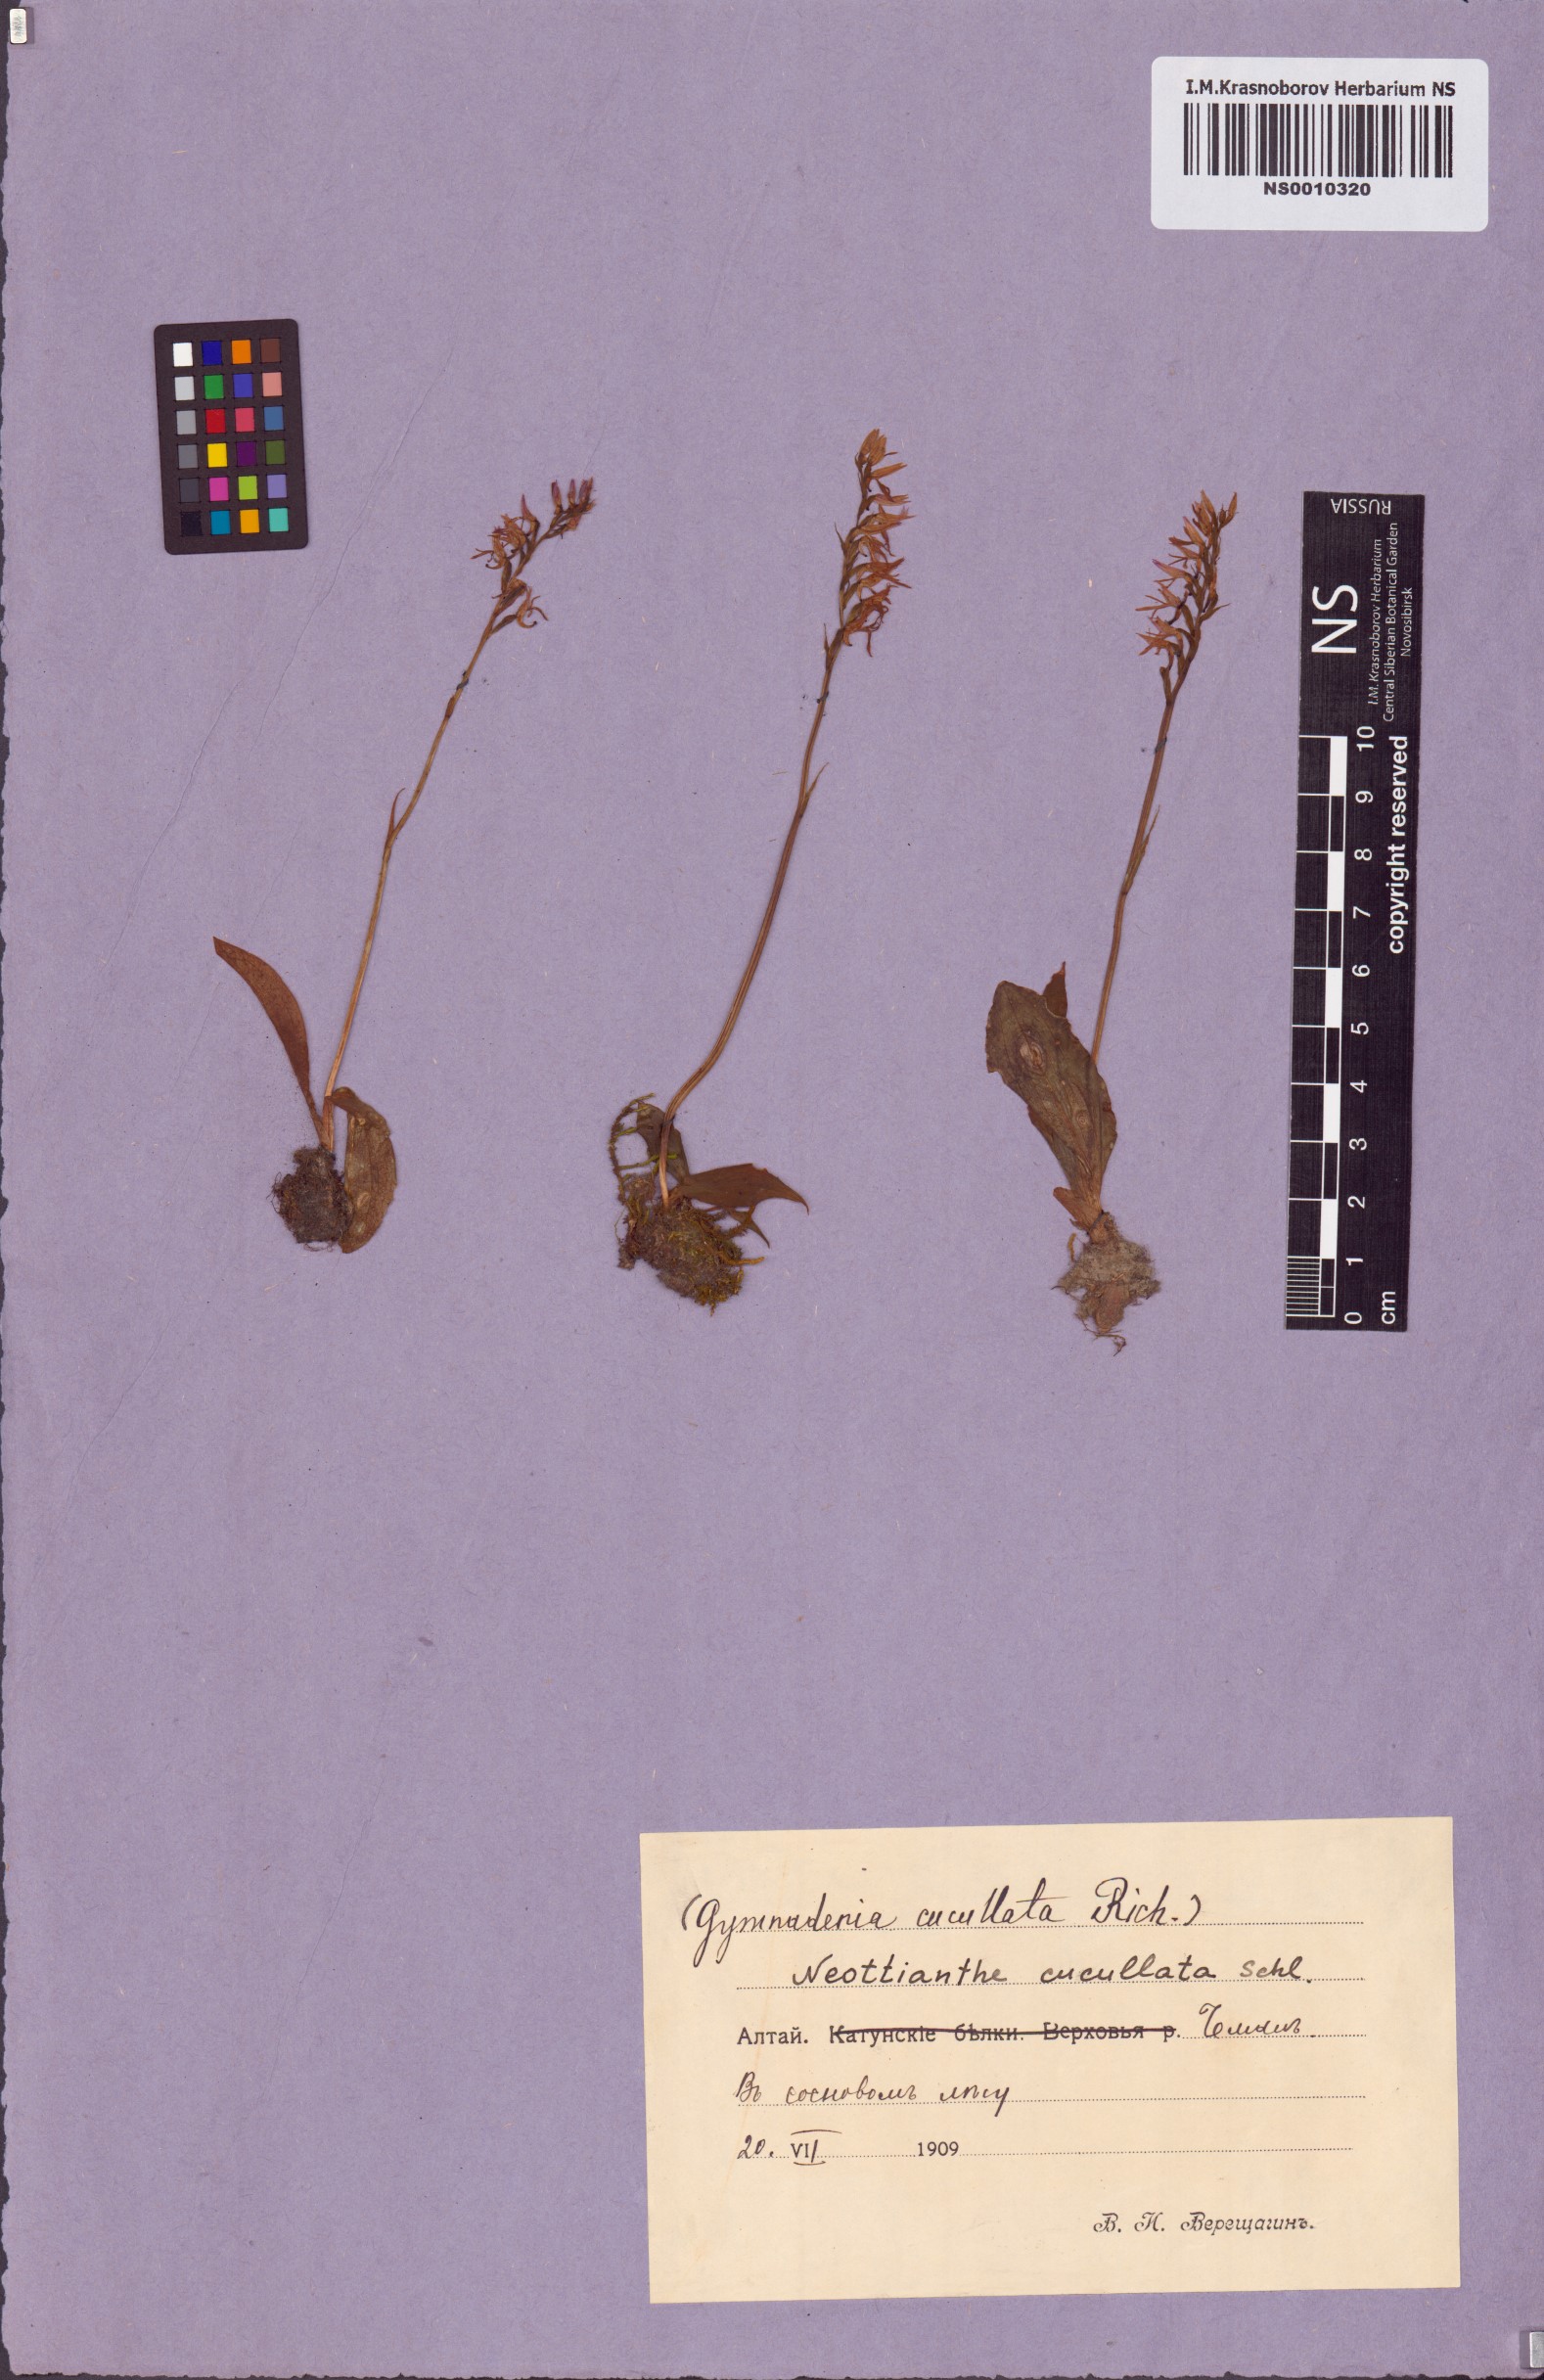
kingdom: Plantae
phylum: Tracheophyta
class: Liliopsida
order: Asparagales
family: Orchidaceae
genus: Hemipilia
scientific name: Hemipilia cucullata
